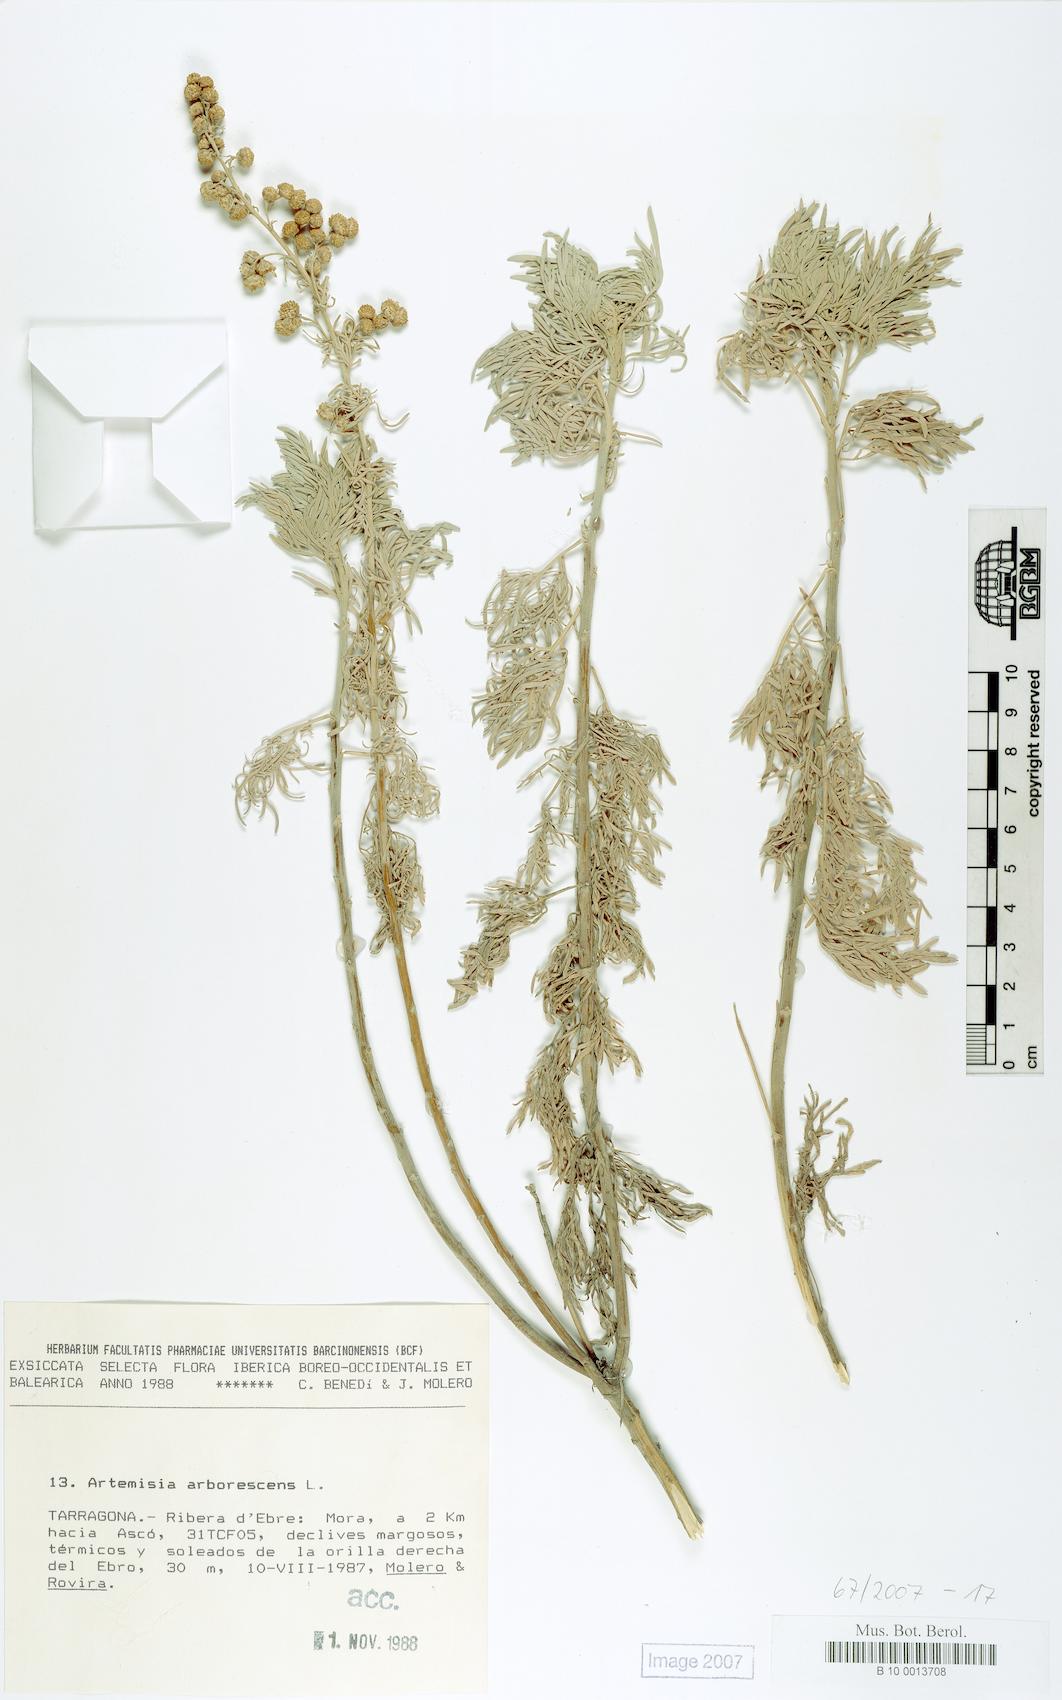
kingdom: Plantae
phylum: Tracheophyta
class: Magnoliopsida
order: Asterales
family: Asteraceae
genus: Artemisia
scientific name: Artemisia arborescens
